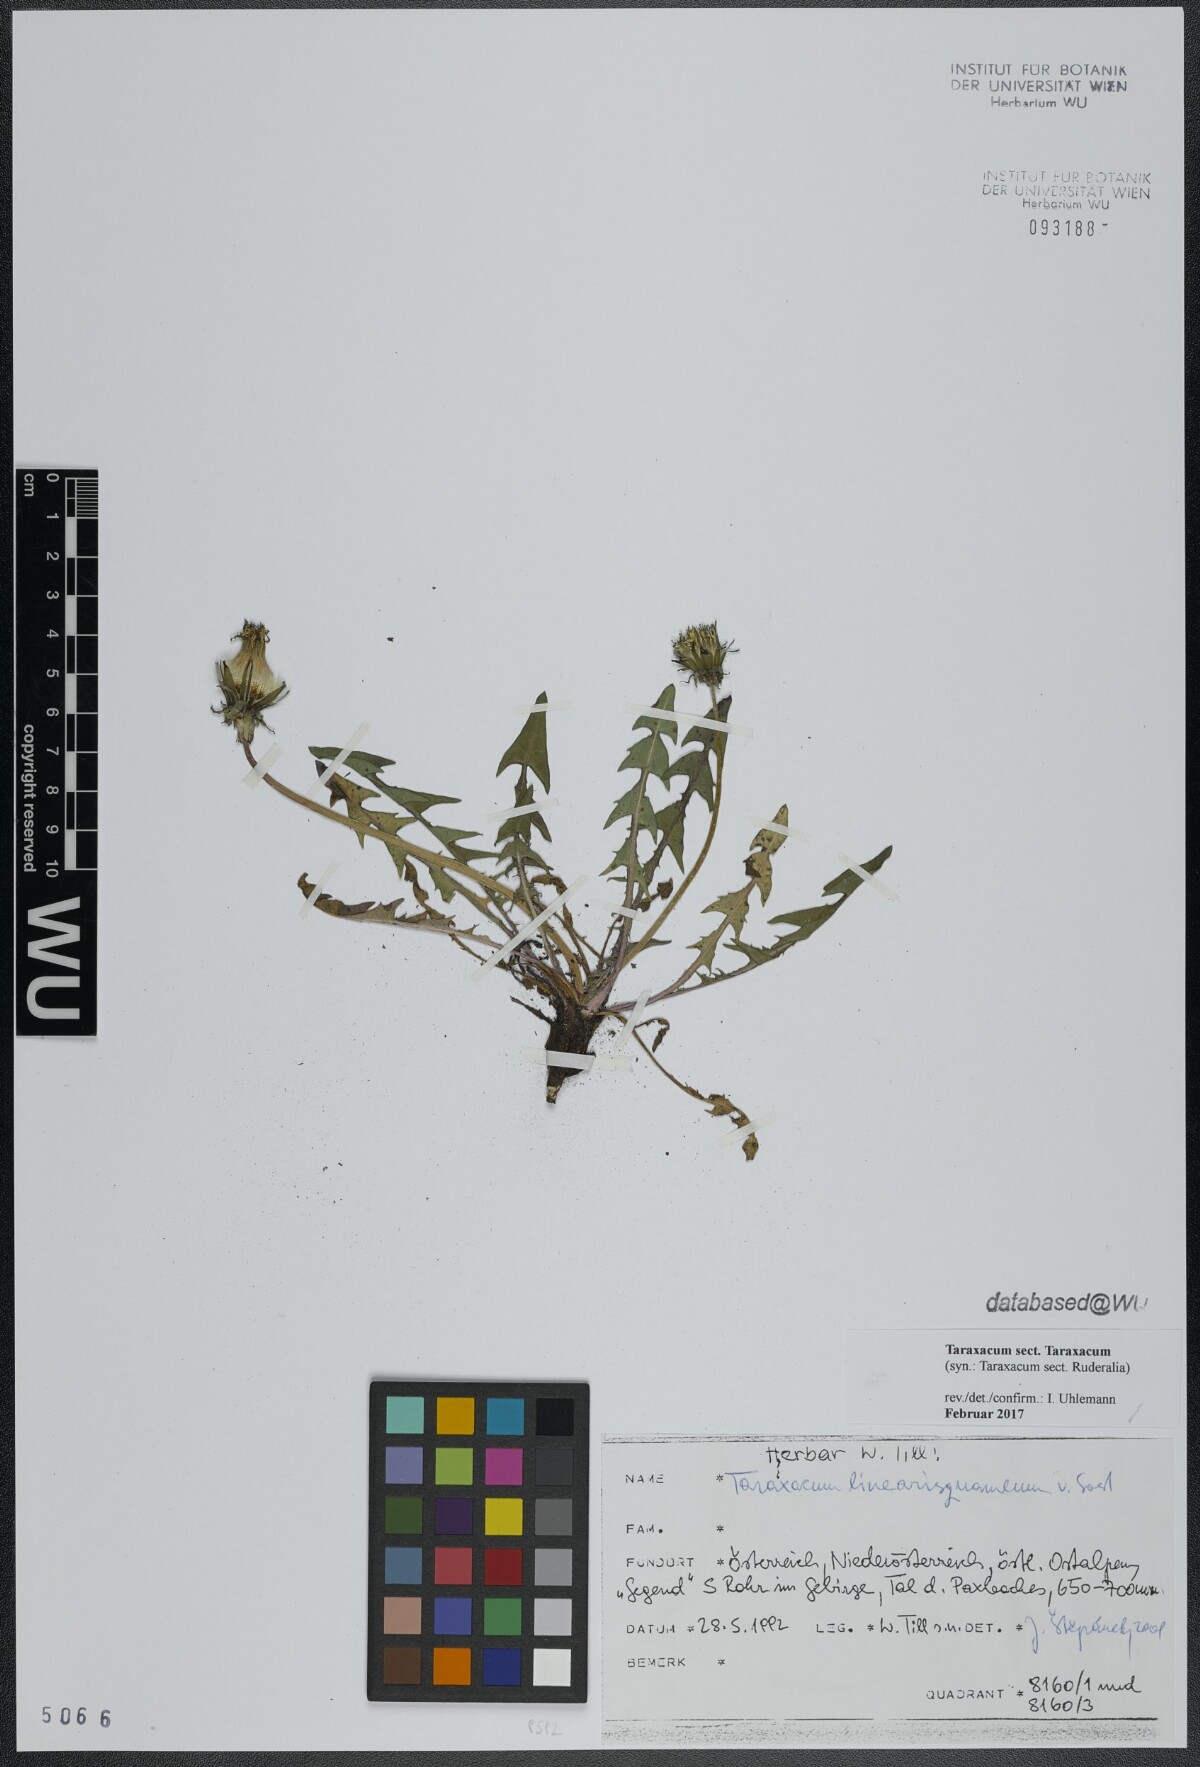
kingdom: Plantae
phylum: Tracheophyta
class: Magnoliopsida
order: Asterales
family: Asteraceae
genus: Taraxacum
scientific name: Taraxacum
